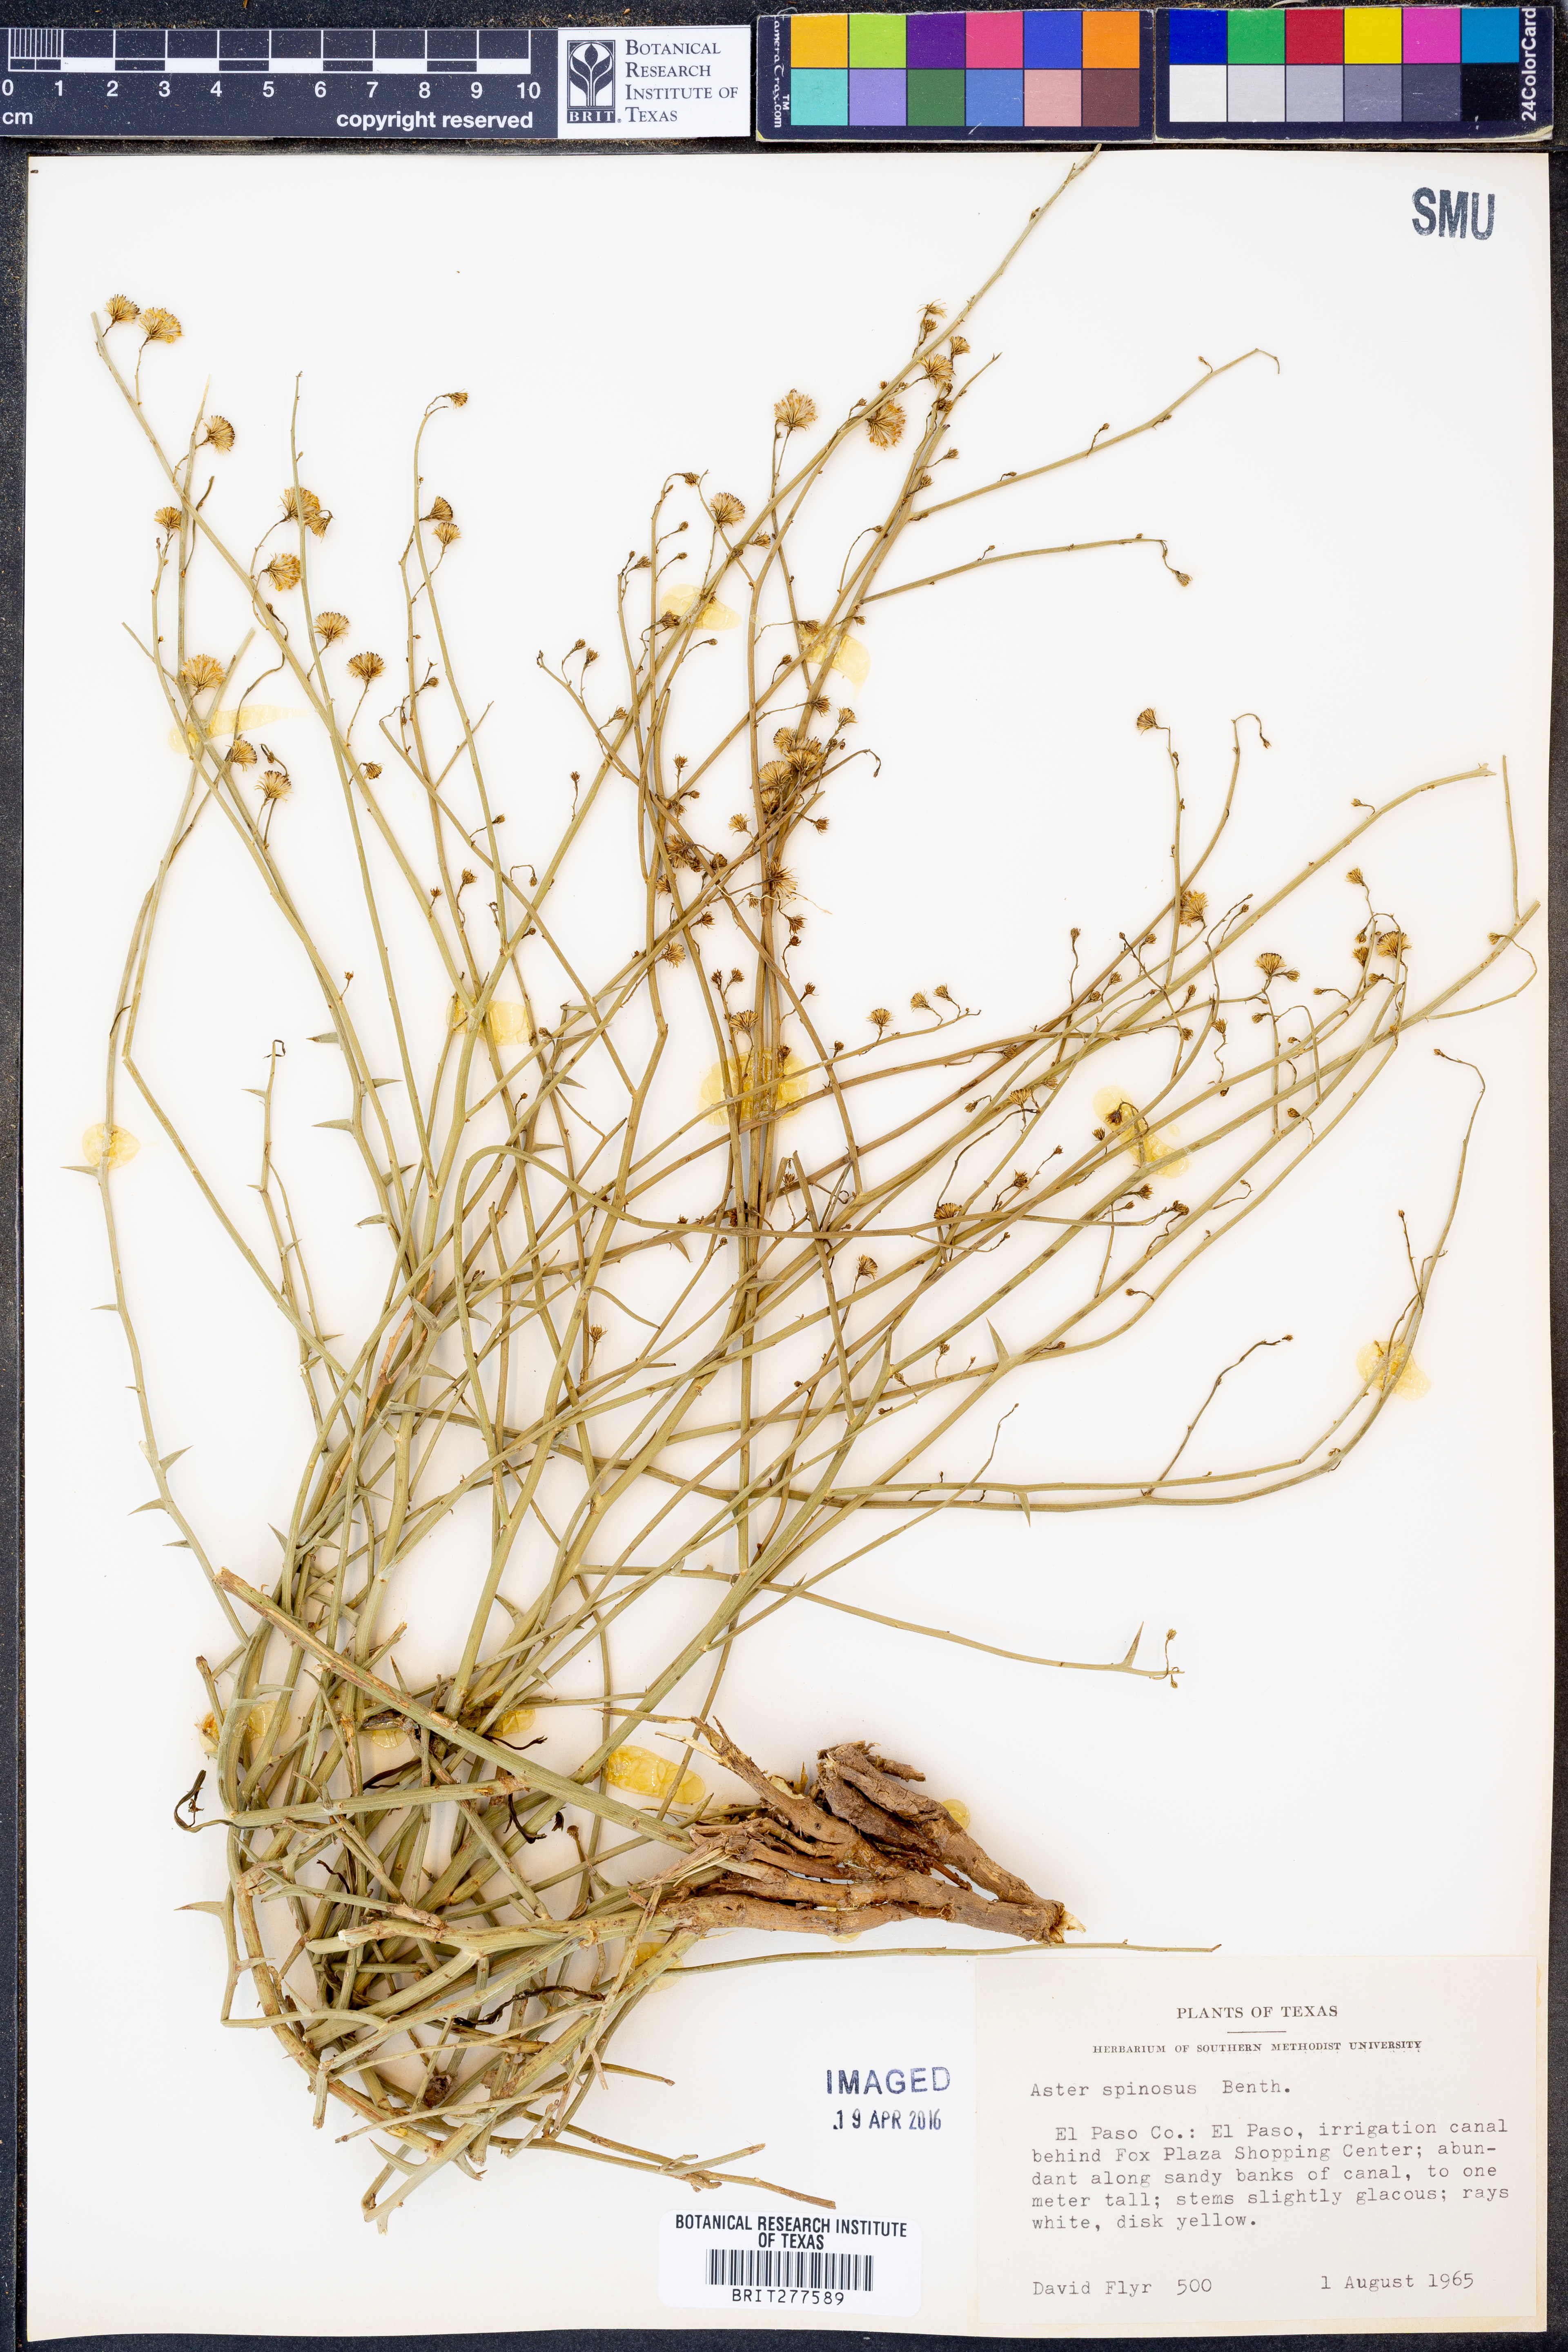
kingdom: Plantae
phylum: Tracheophyta
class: Magnoliopsida
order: Asterales
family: Asteraceae
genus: Chloracantha
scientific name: Chloracantha spinosa
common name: Mexican devilweed
